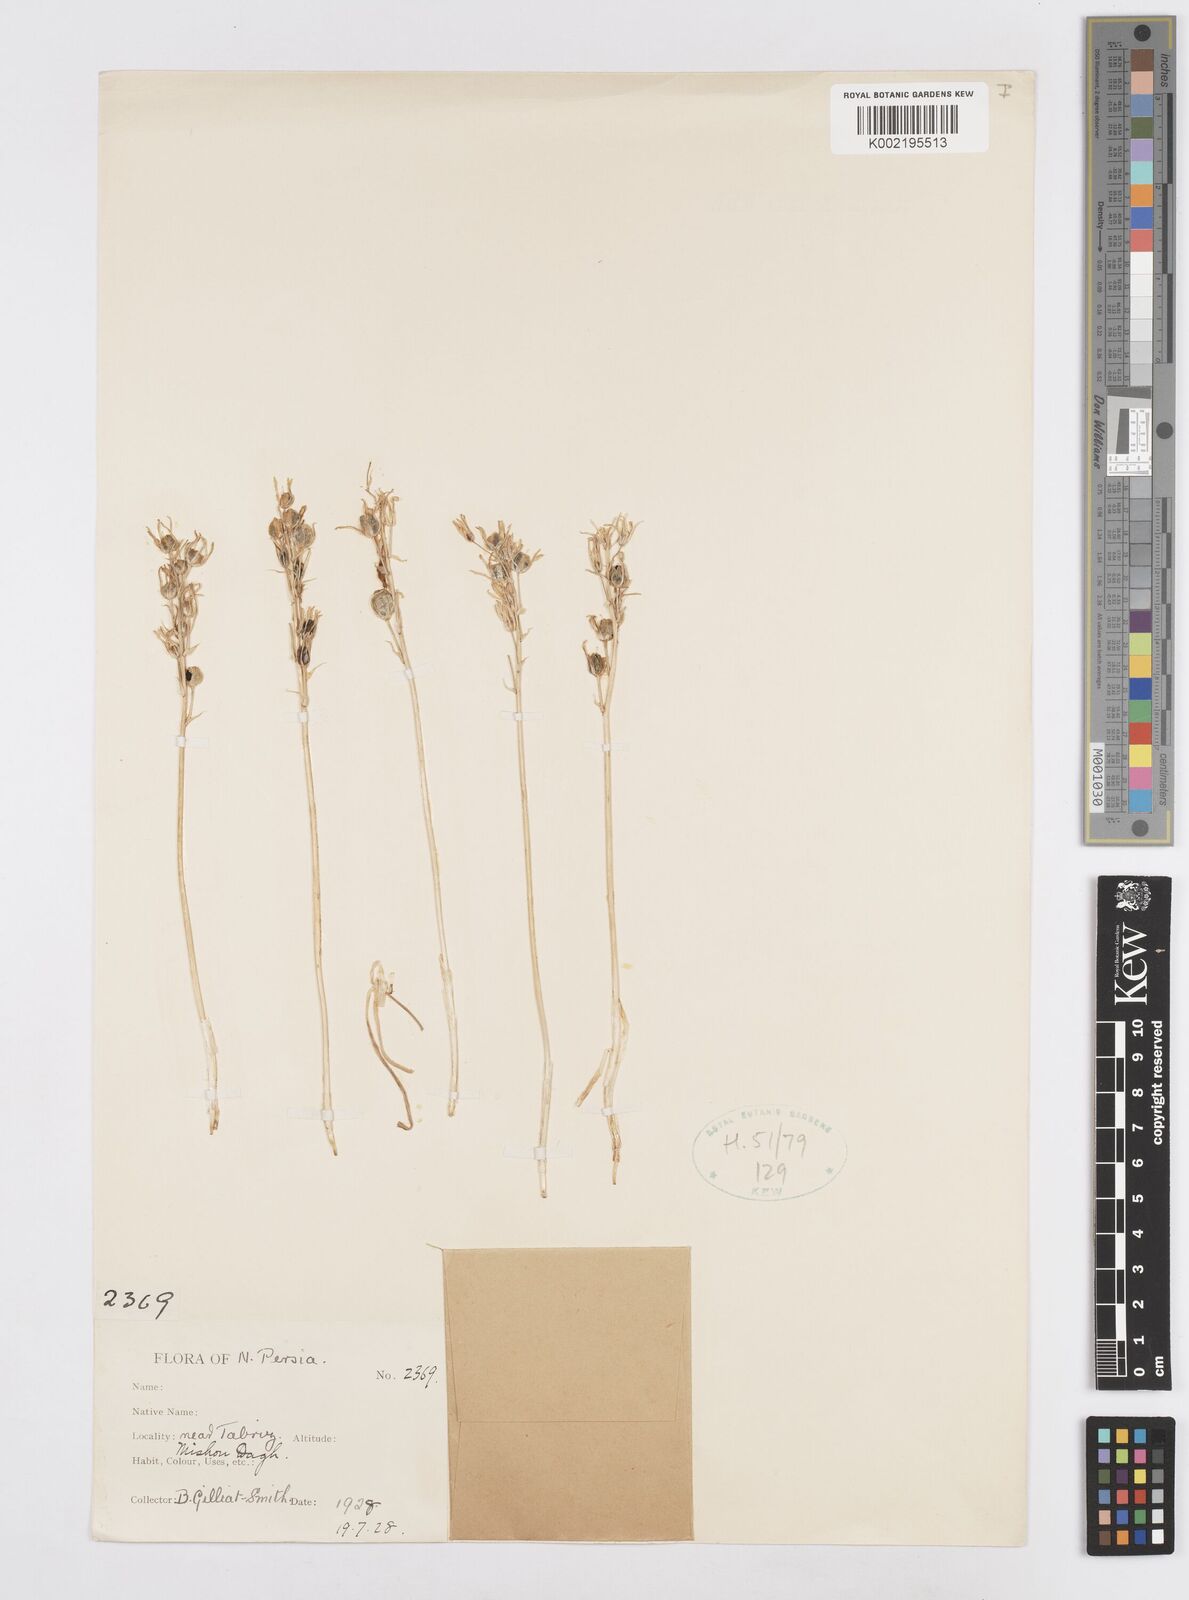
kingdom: Plantae
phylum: Tracheophyta
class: Liliopsida
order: Asparagales
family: Asparagaceae
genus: Ornithogalum
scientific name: Ornithogalum
